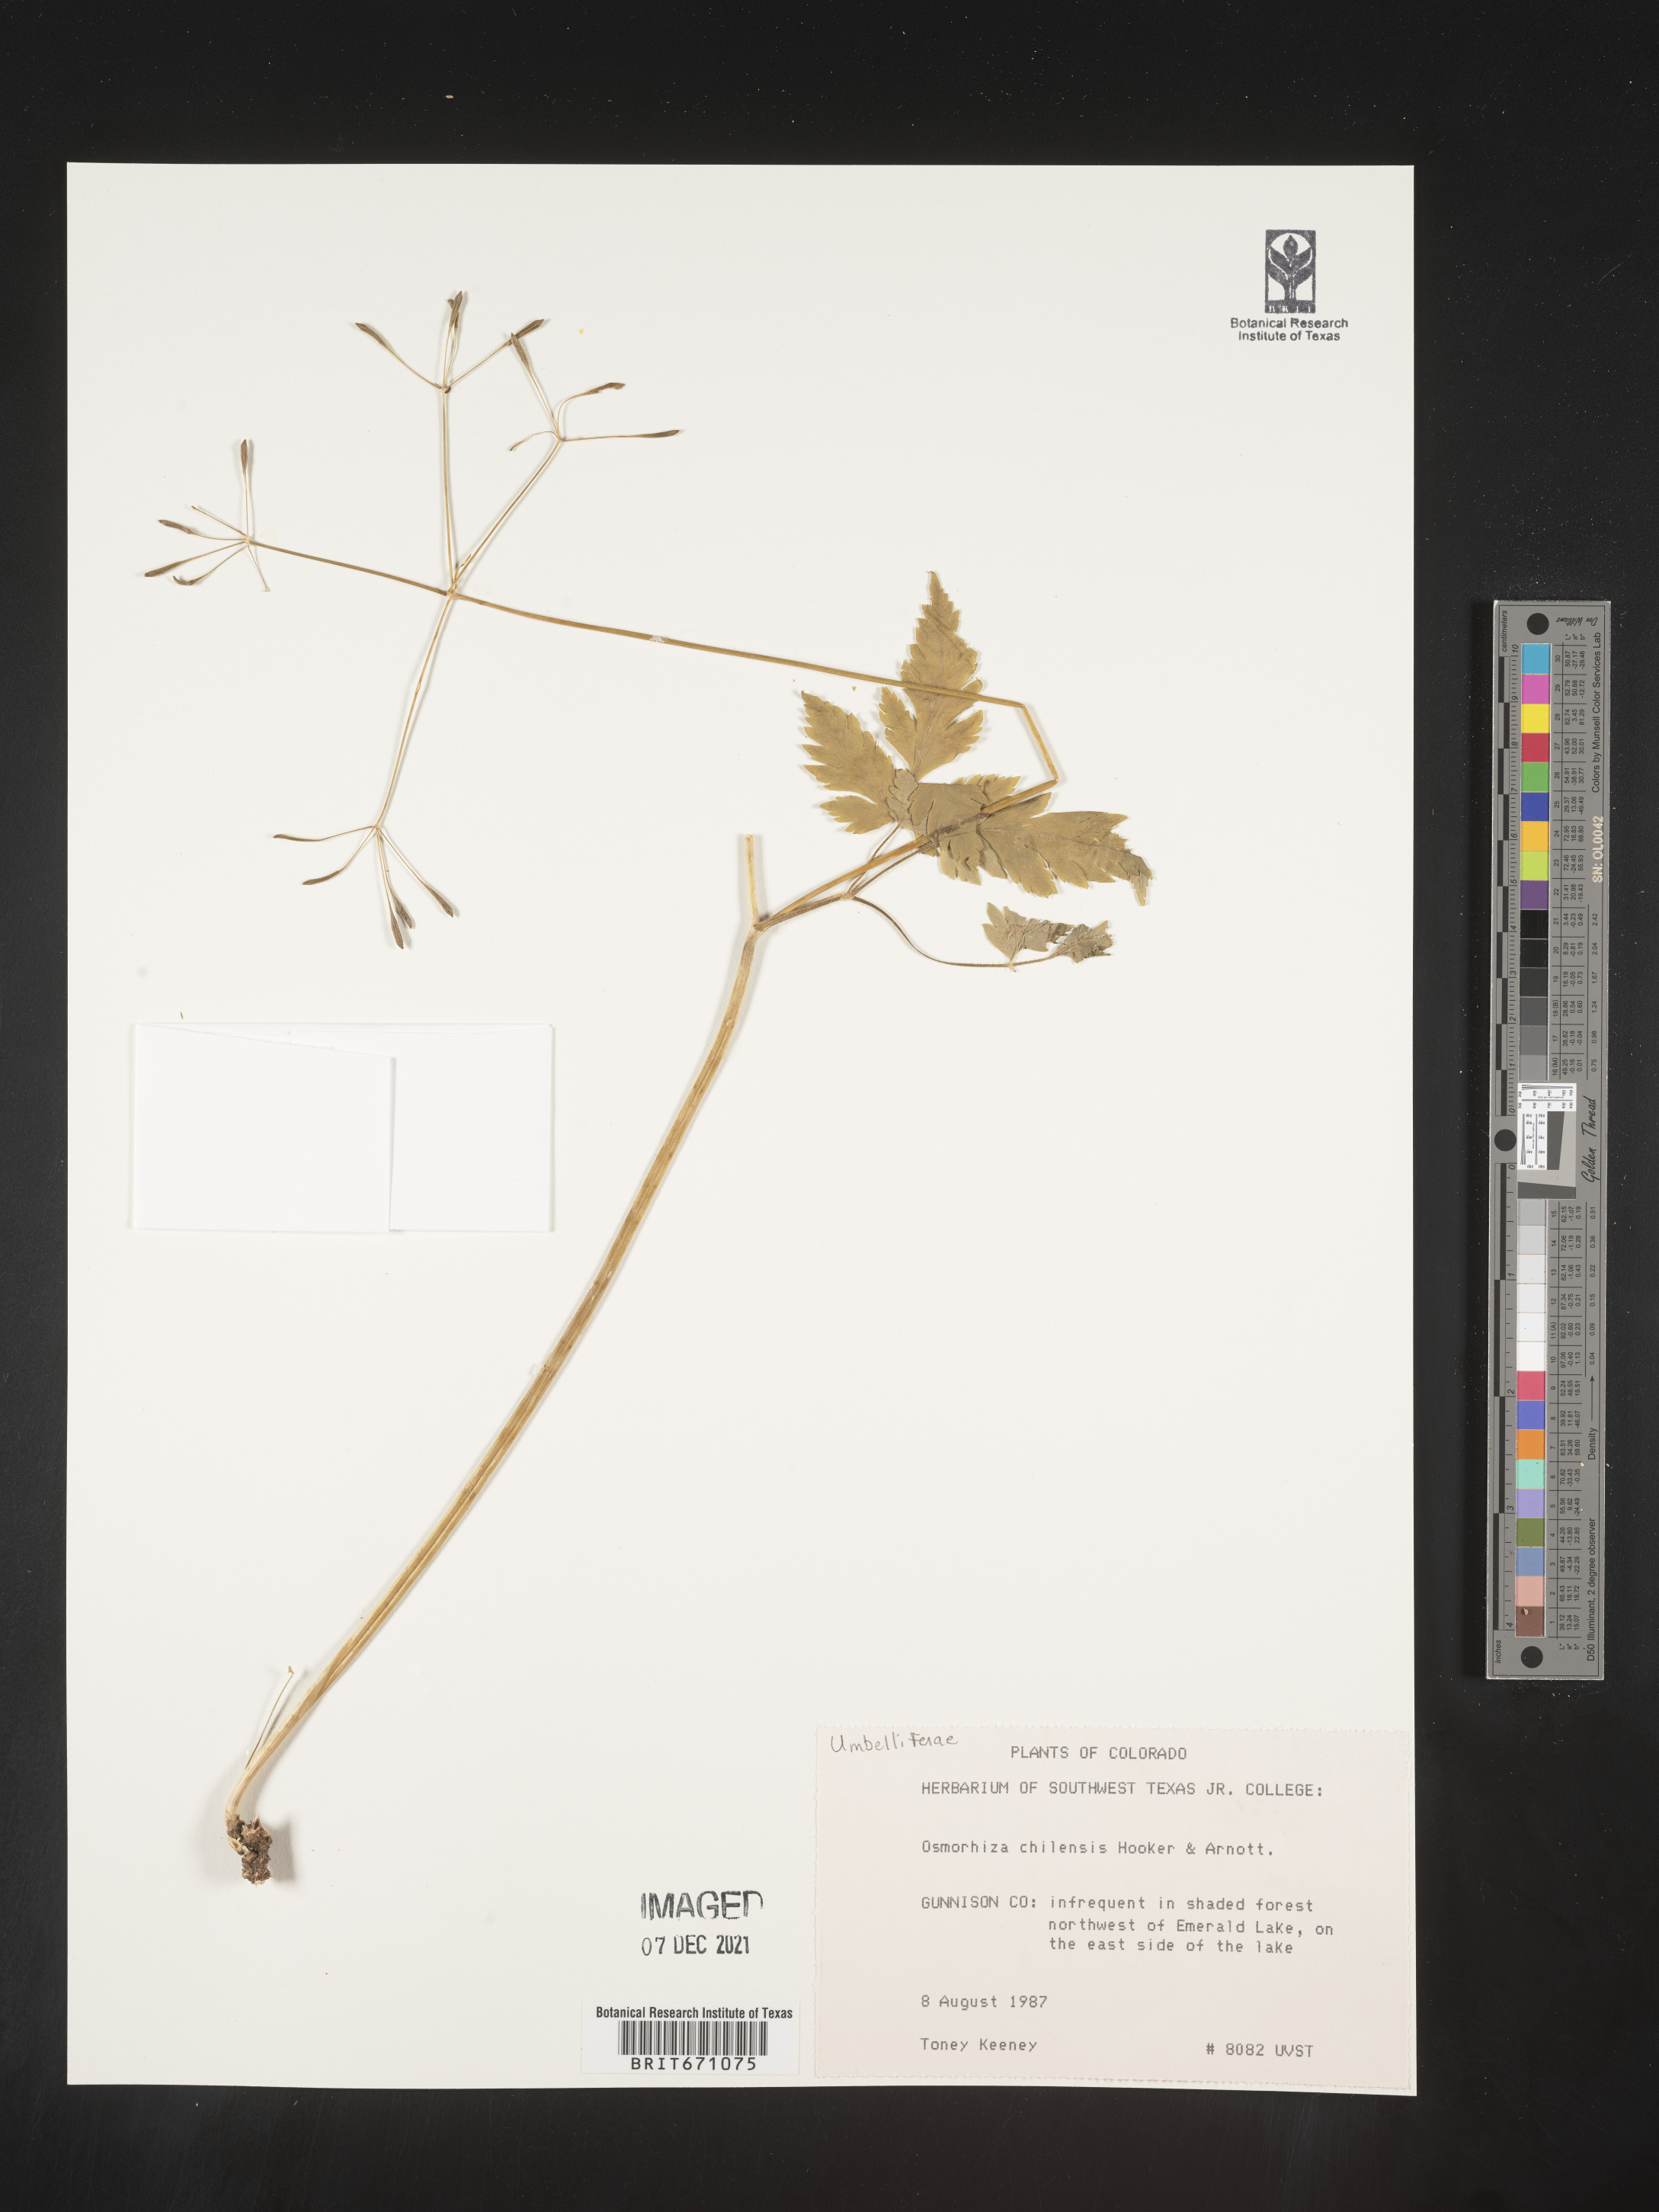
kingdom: Plantae
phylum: Tracheophyta
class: Magnoliopsida
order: Apiales
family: Apiaceae
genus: Osmorhiza
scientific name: Osmorhiza berteroi
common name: Mountain sweet cicely
